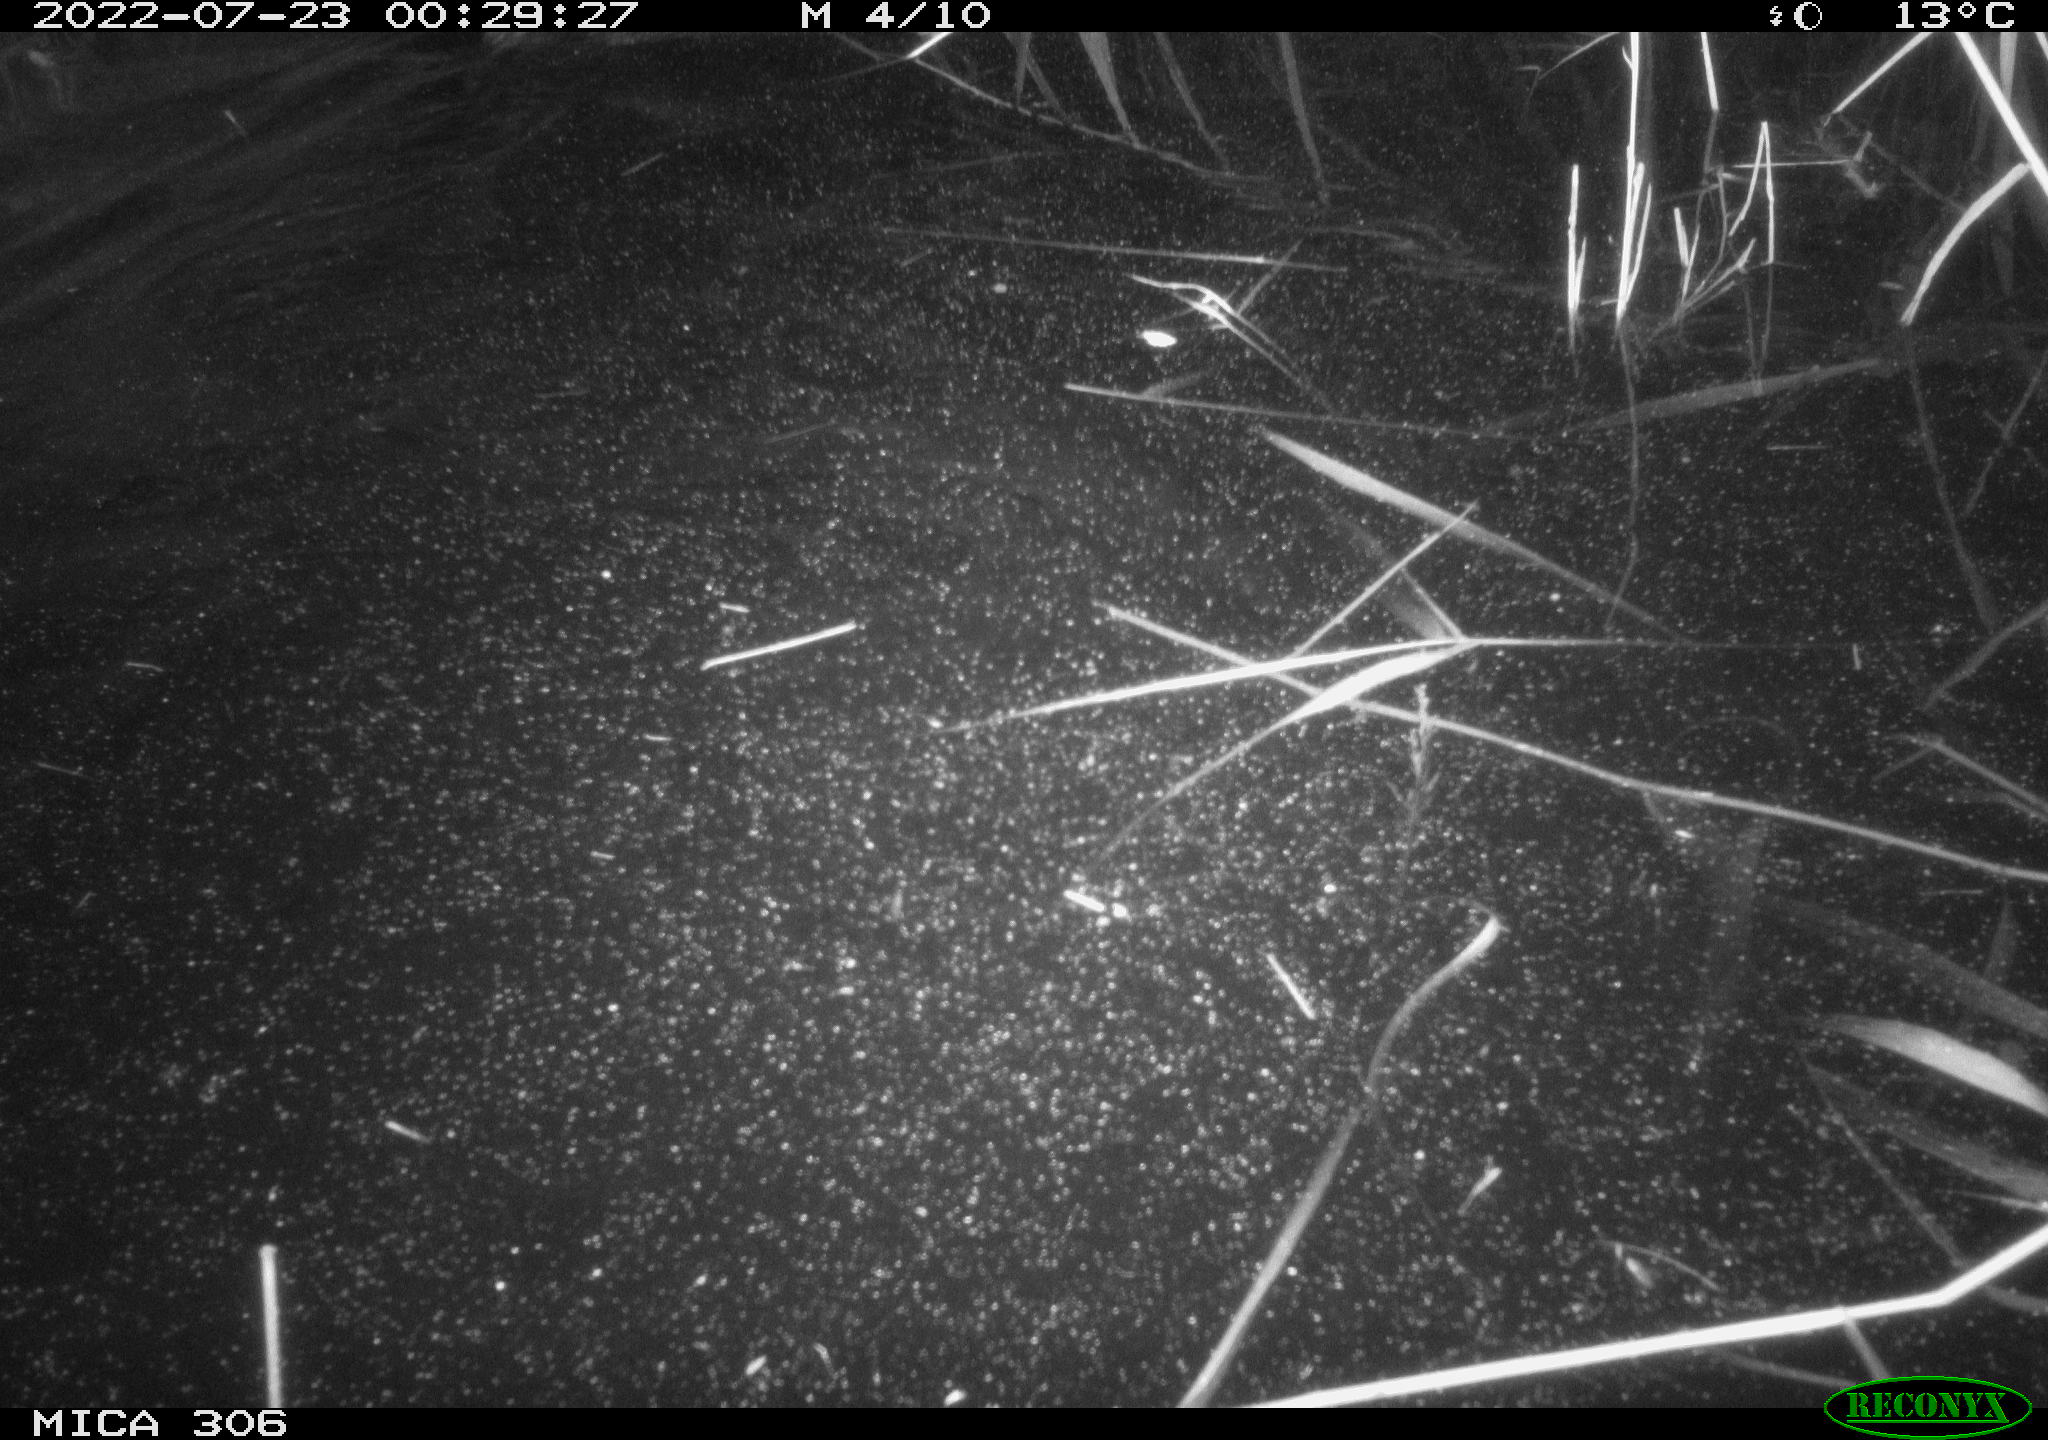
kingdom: Animalia
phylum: Chordata
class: Mammalia
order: Rodentia
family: Cricetidae
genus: Ondatra
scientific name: Ondatra zibethicus
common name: Muskrat
